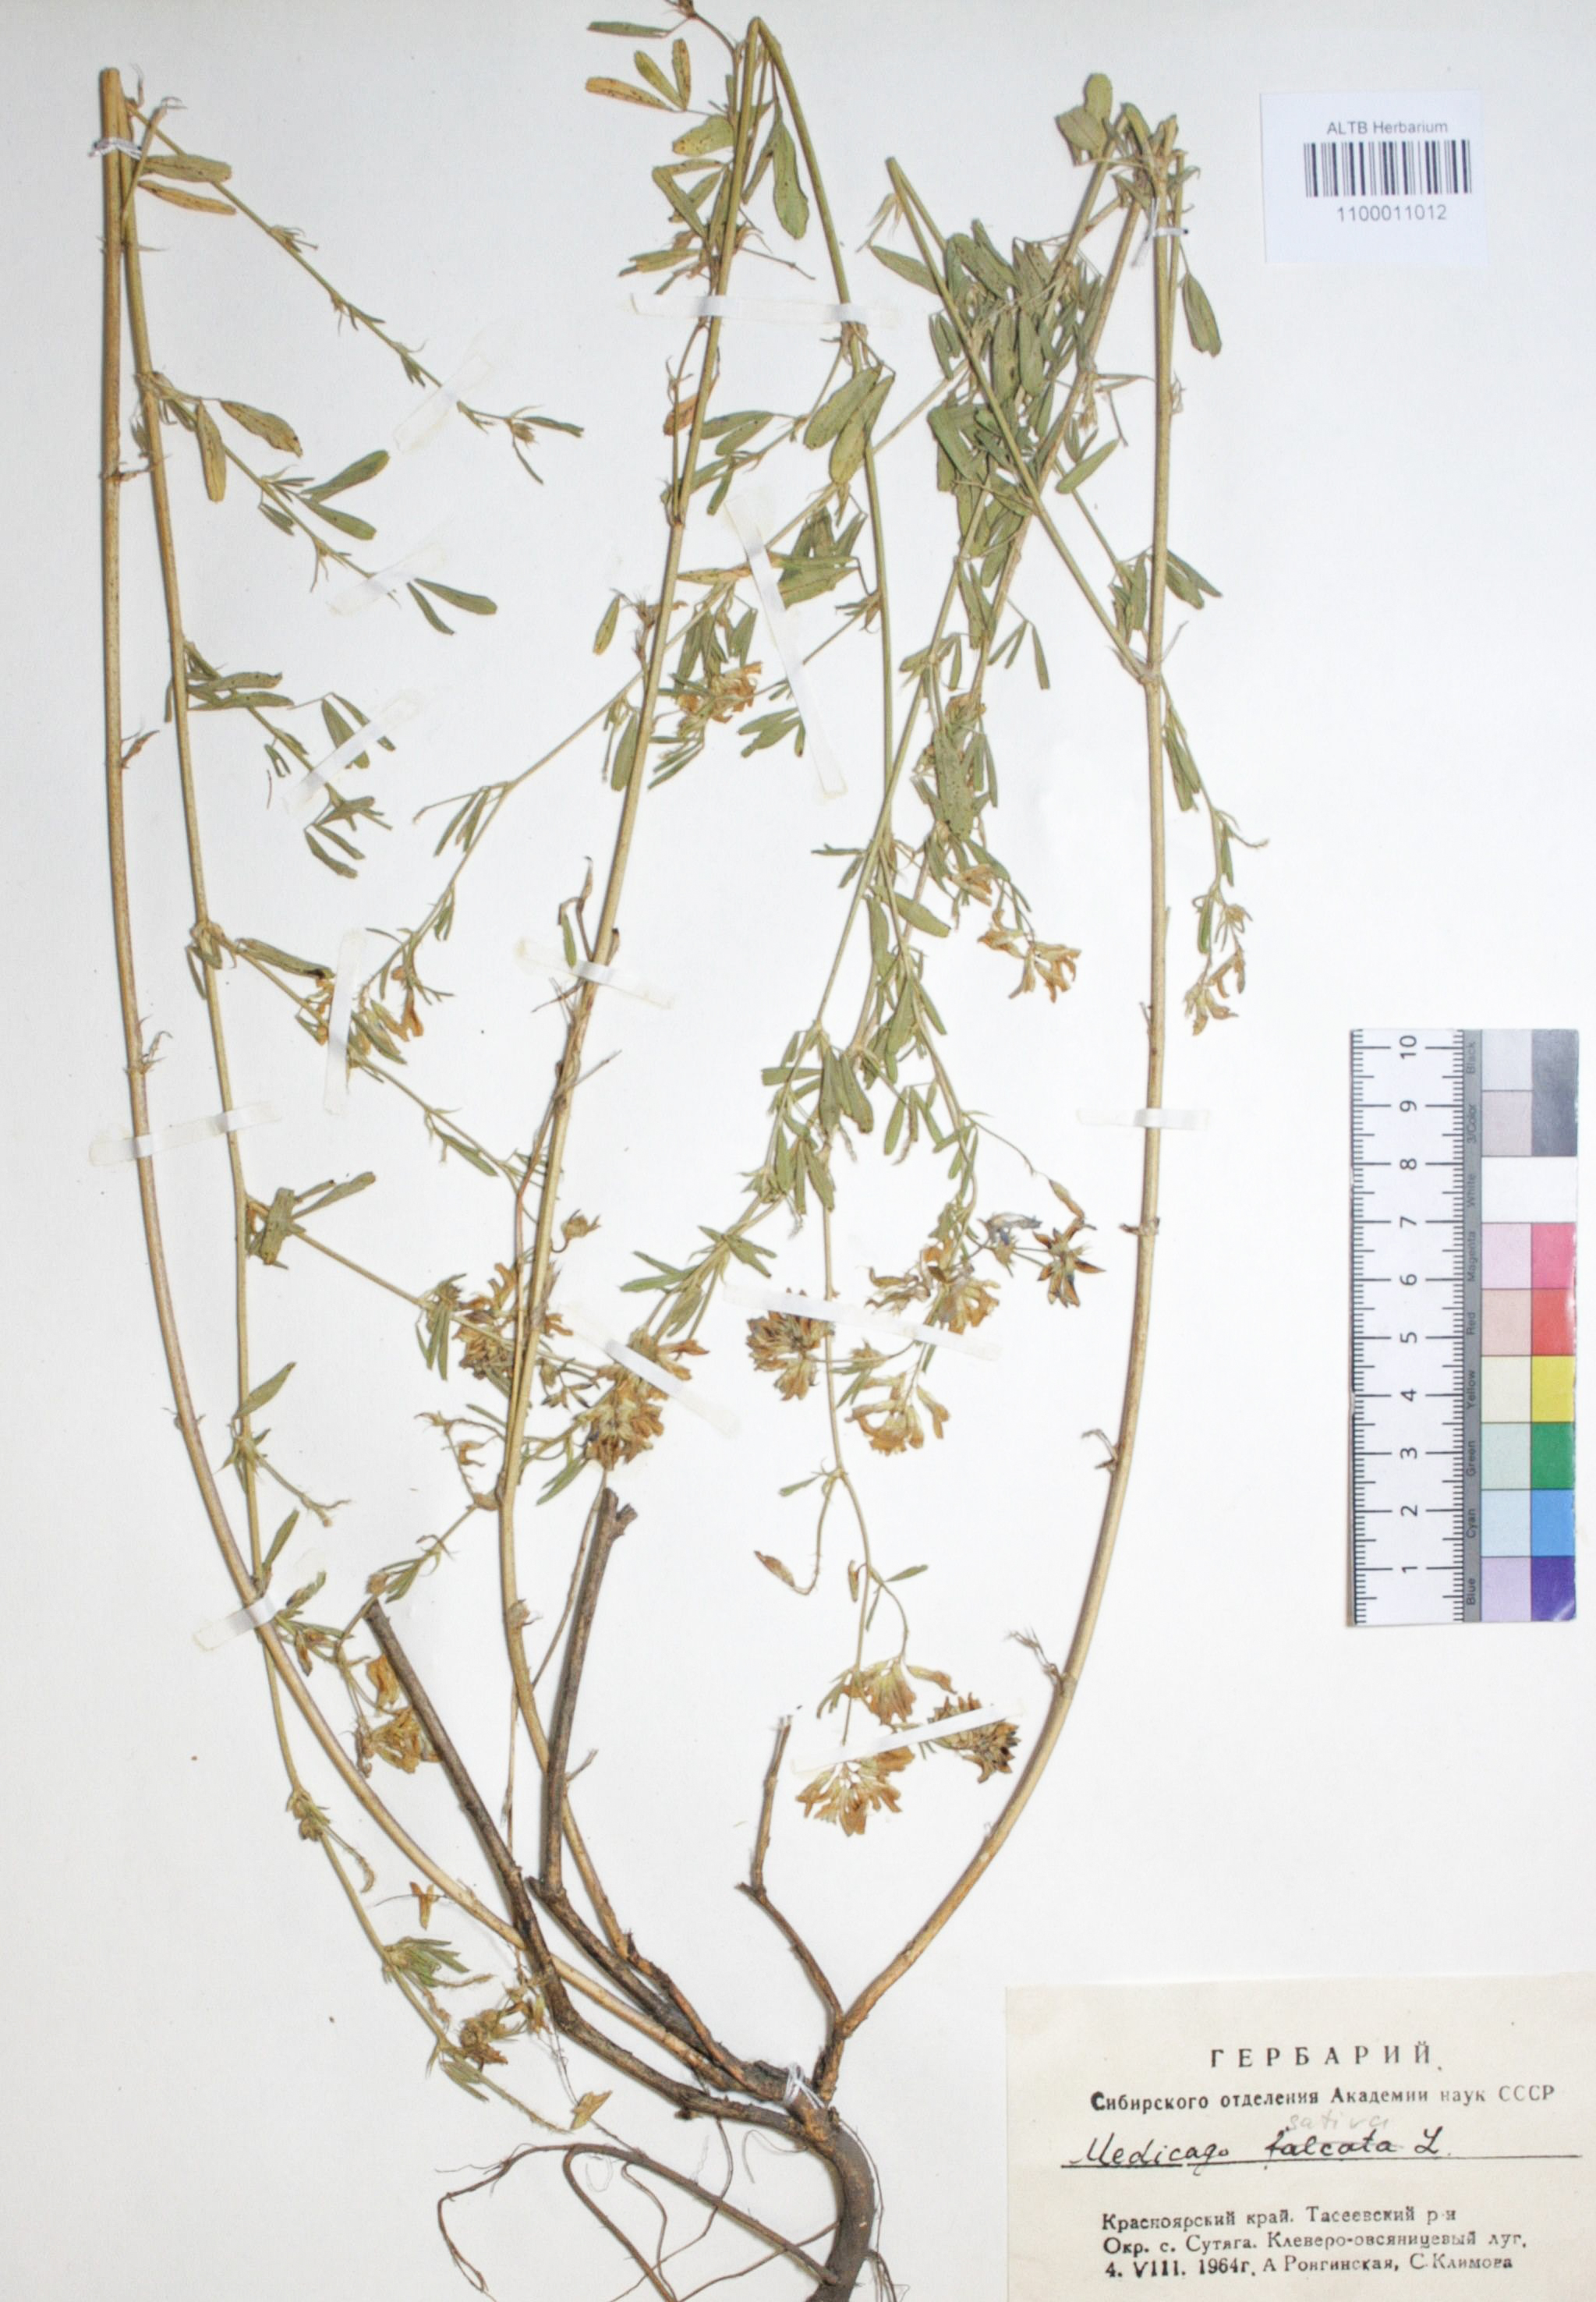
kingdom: Plantae
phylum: Tracheophyta
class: Magnoliopsida
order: Fabales
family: Fabaceae
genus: Medicago
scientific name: Medicago sativa
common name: Alfalfa
